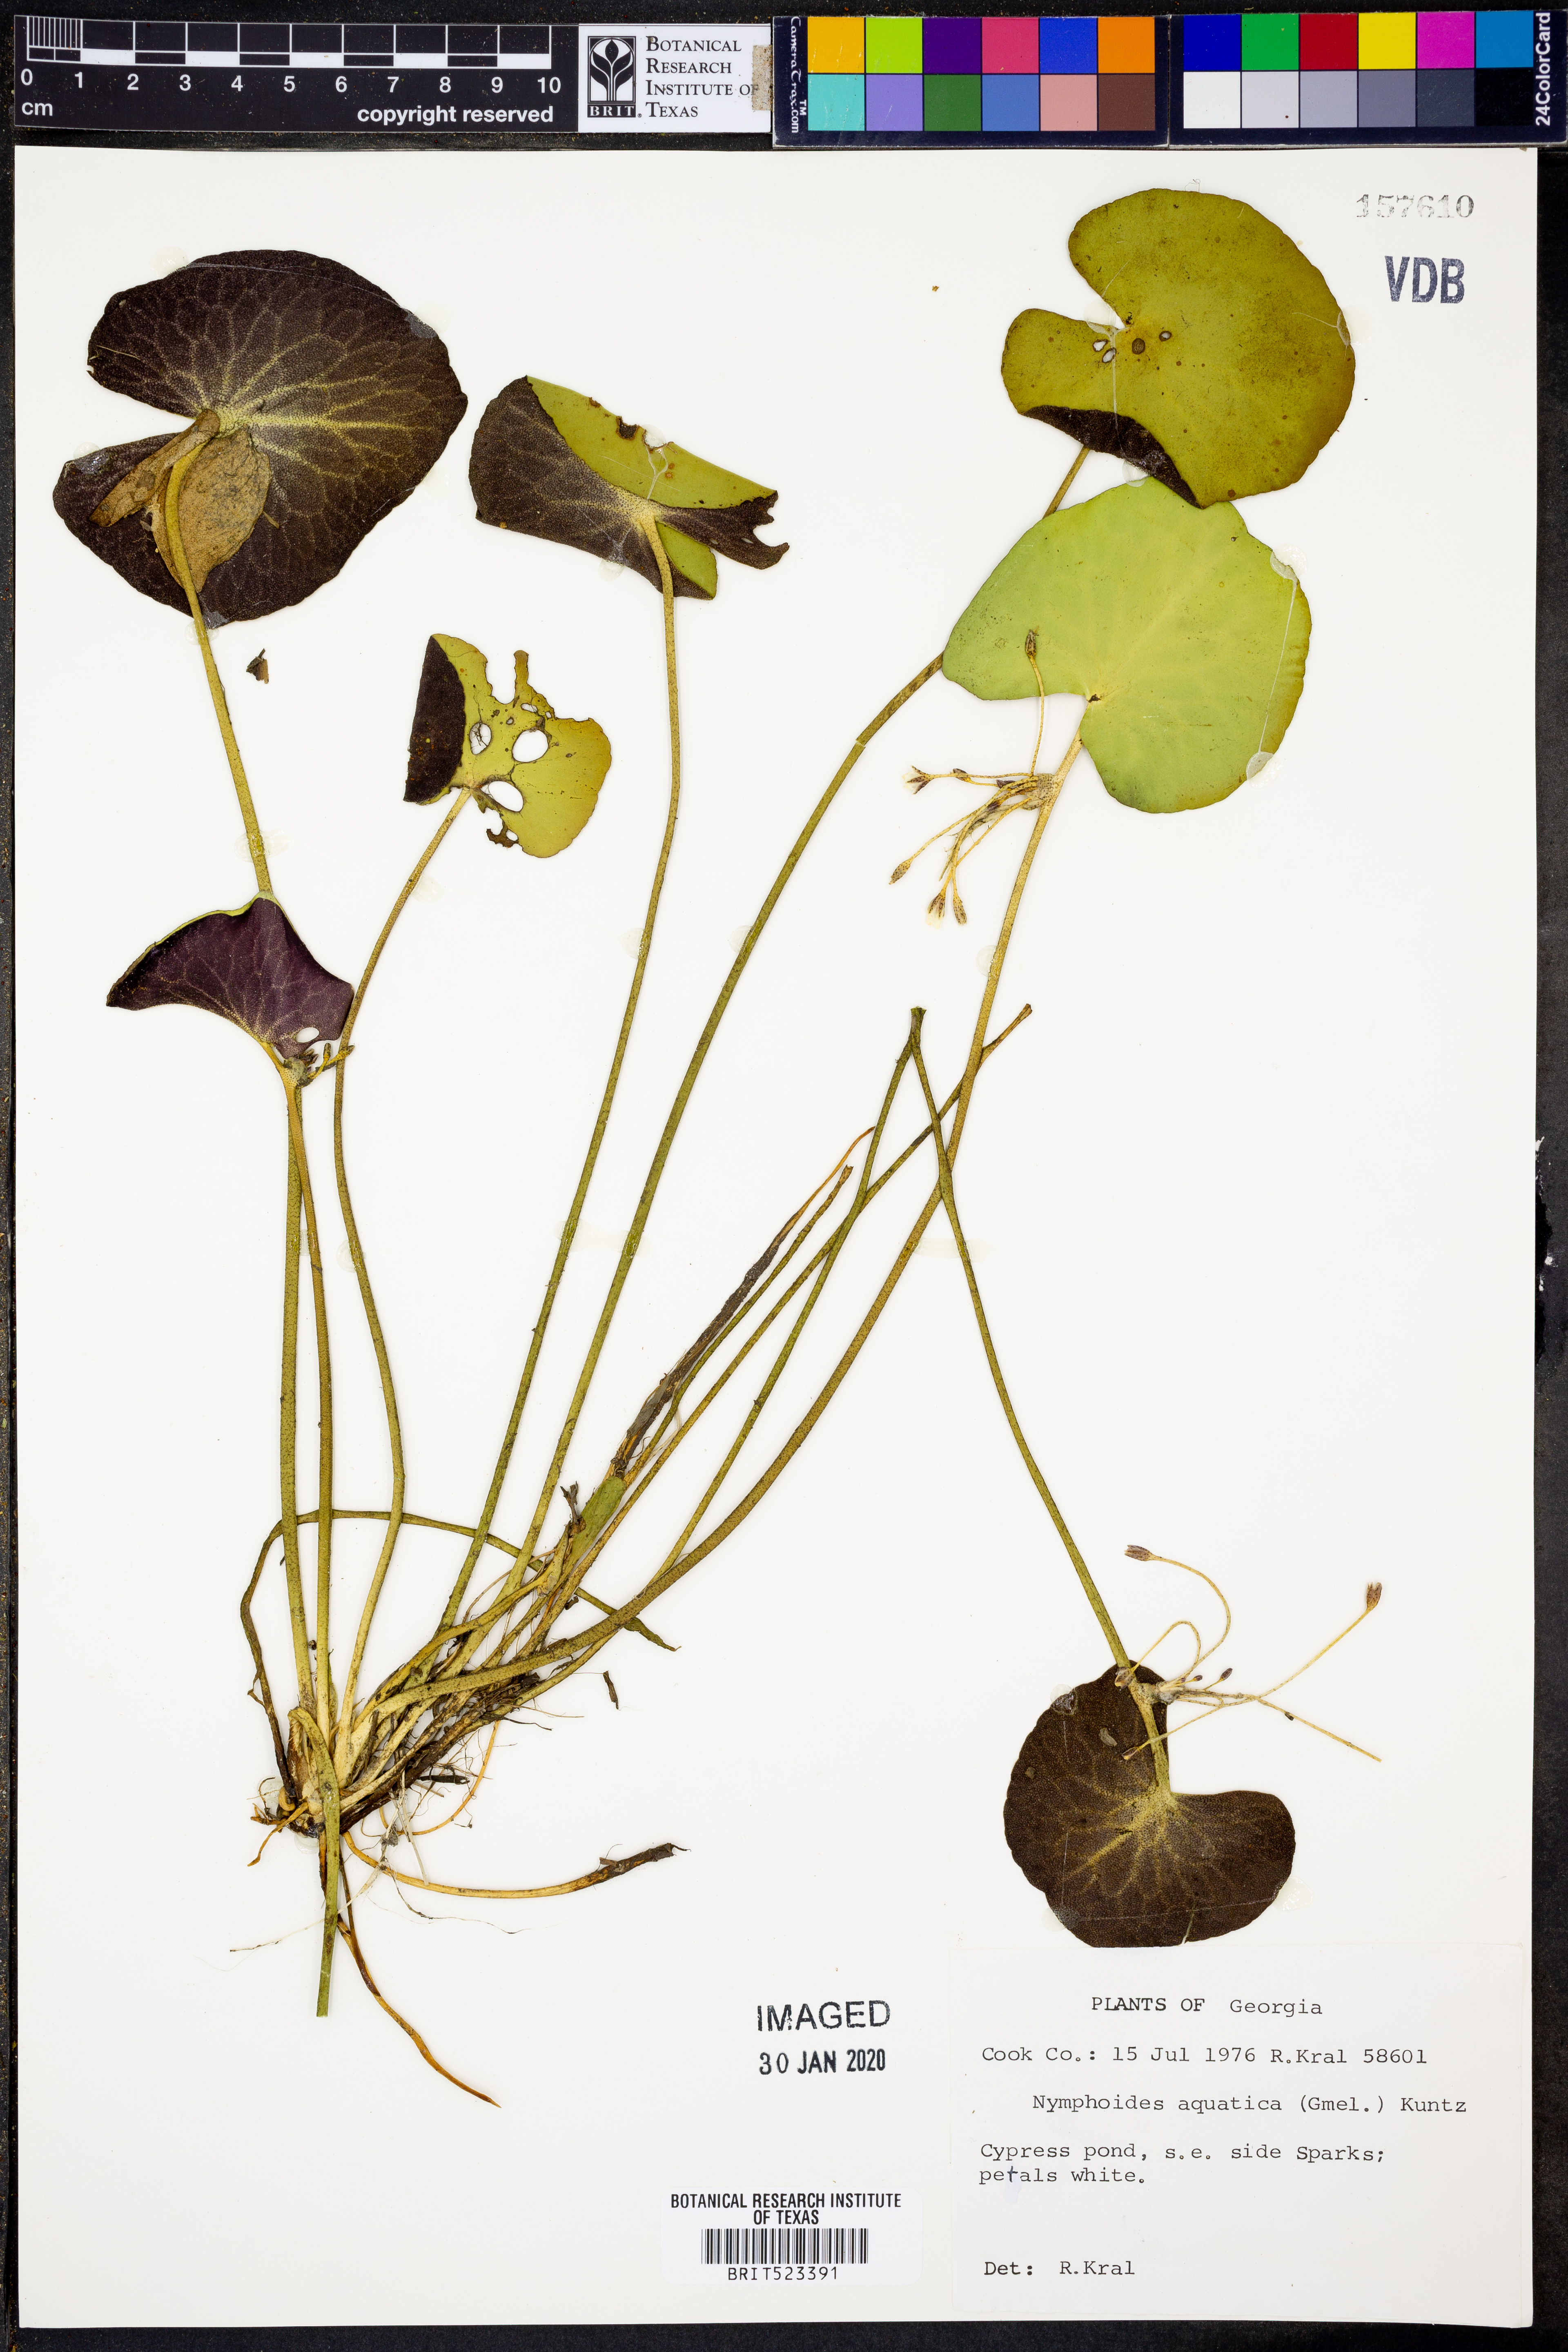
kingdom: Plantae
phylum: Tracheophyta
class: Magnoliopsida
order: Asterales
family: Menyanthaceae
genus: Nymphoides
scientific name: Nymphoides aquatica
